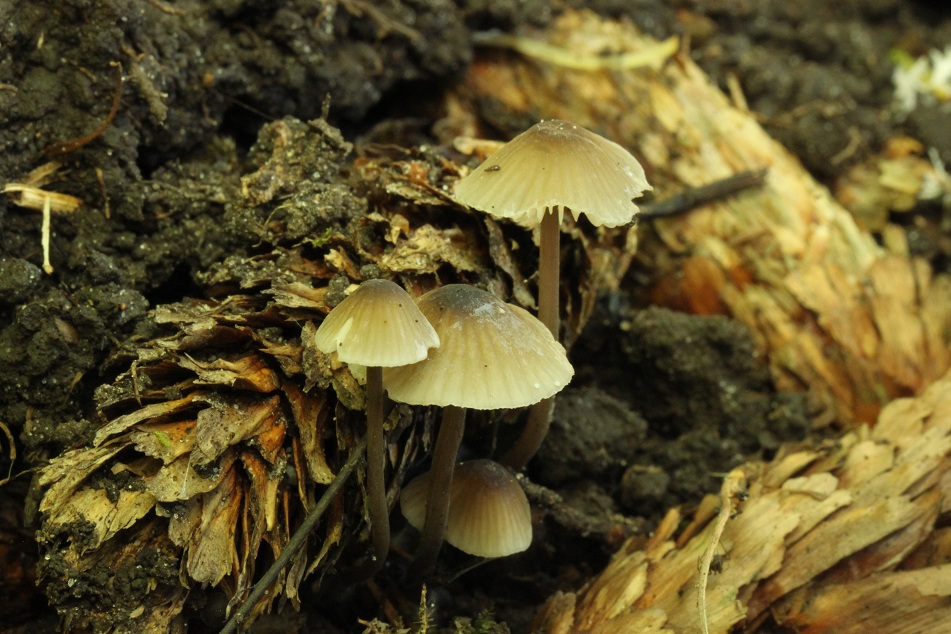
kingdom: Fungi
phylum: Basidiomycota
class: Agaricomycetes
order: Agaricales
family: Mycenaceae
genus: Mycena
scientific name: Mycena galopus
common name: hvidmælket huesvamp
